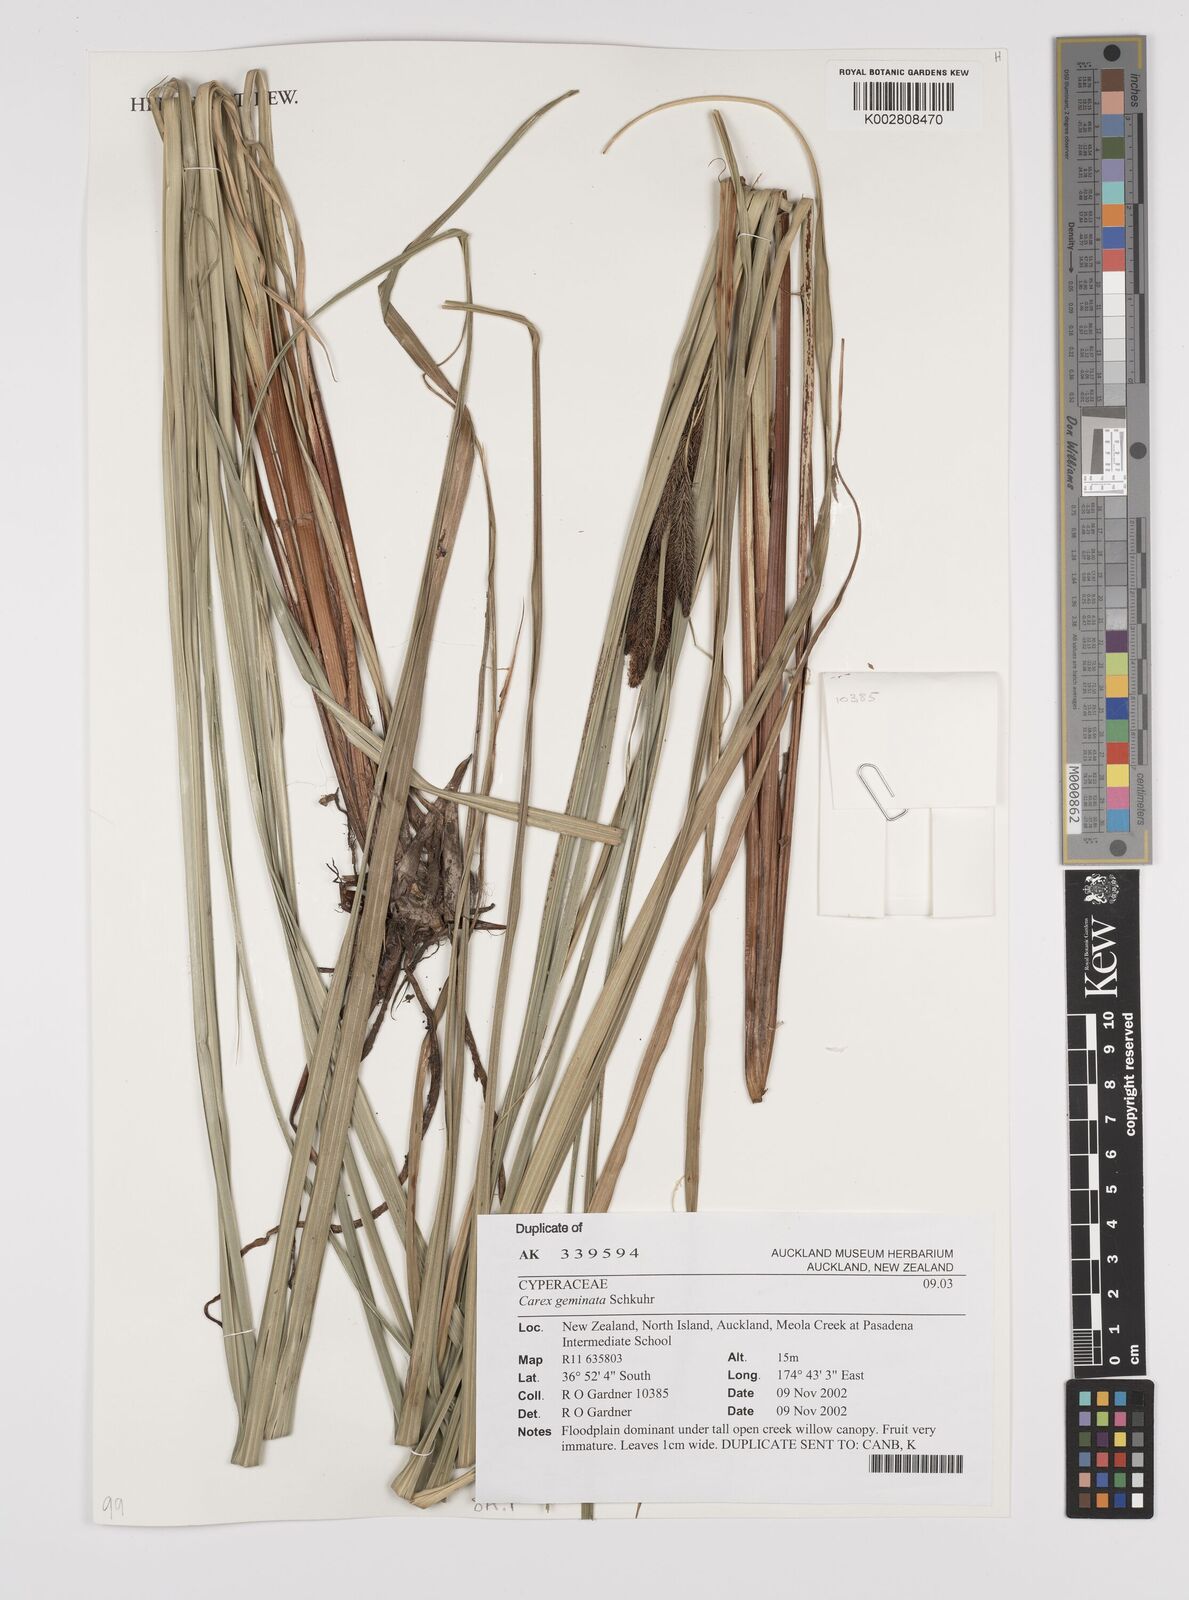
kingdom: Plantae
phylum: Tracheophyta
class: Liliopsida
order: Poales
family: Cyperaceae
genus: Carex
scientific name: Carex geminata
